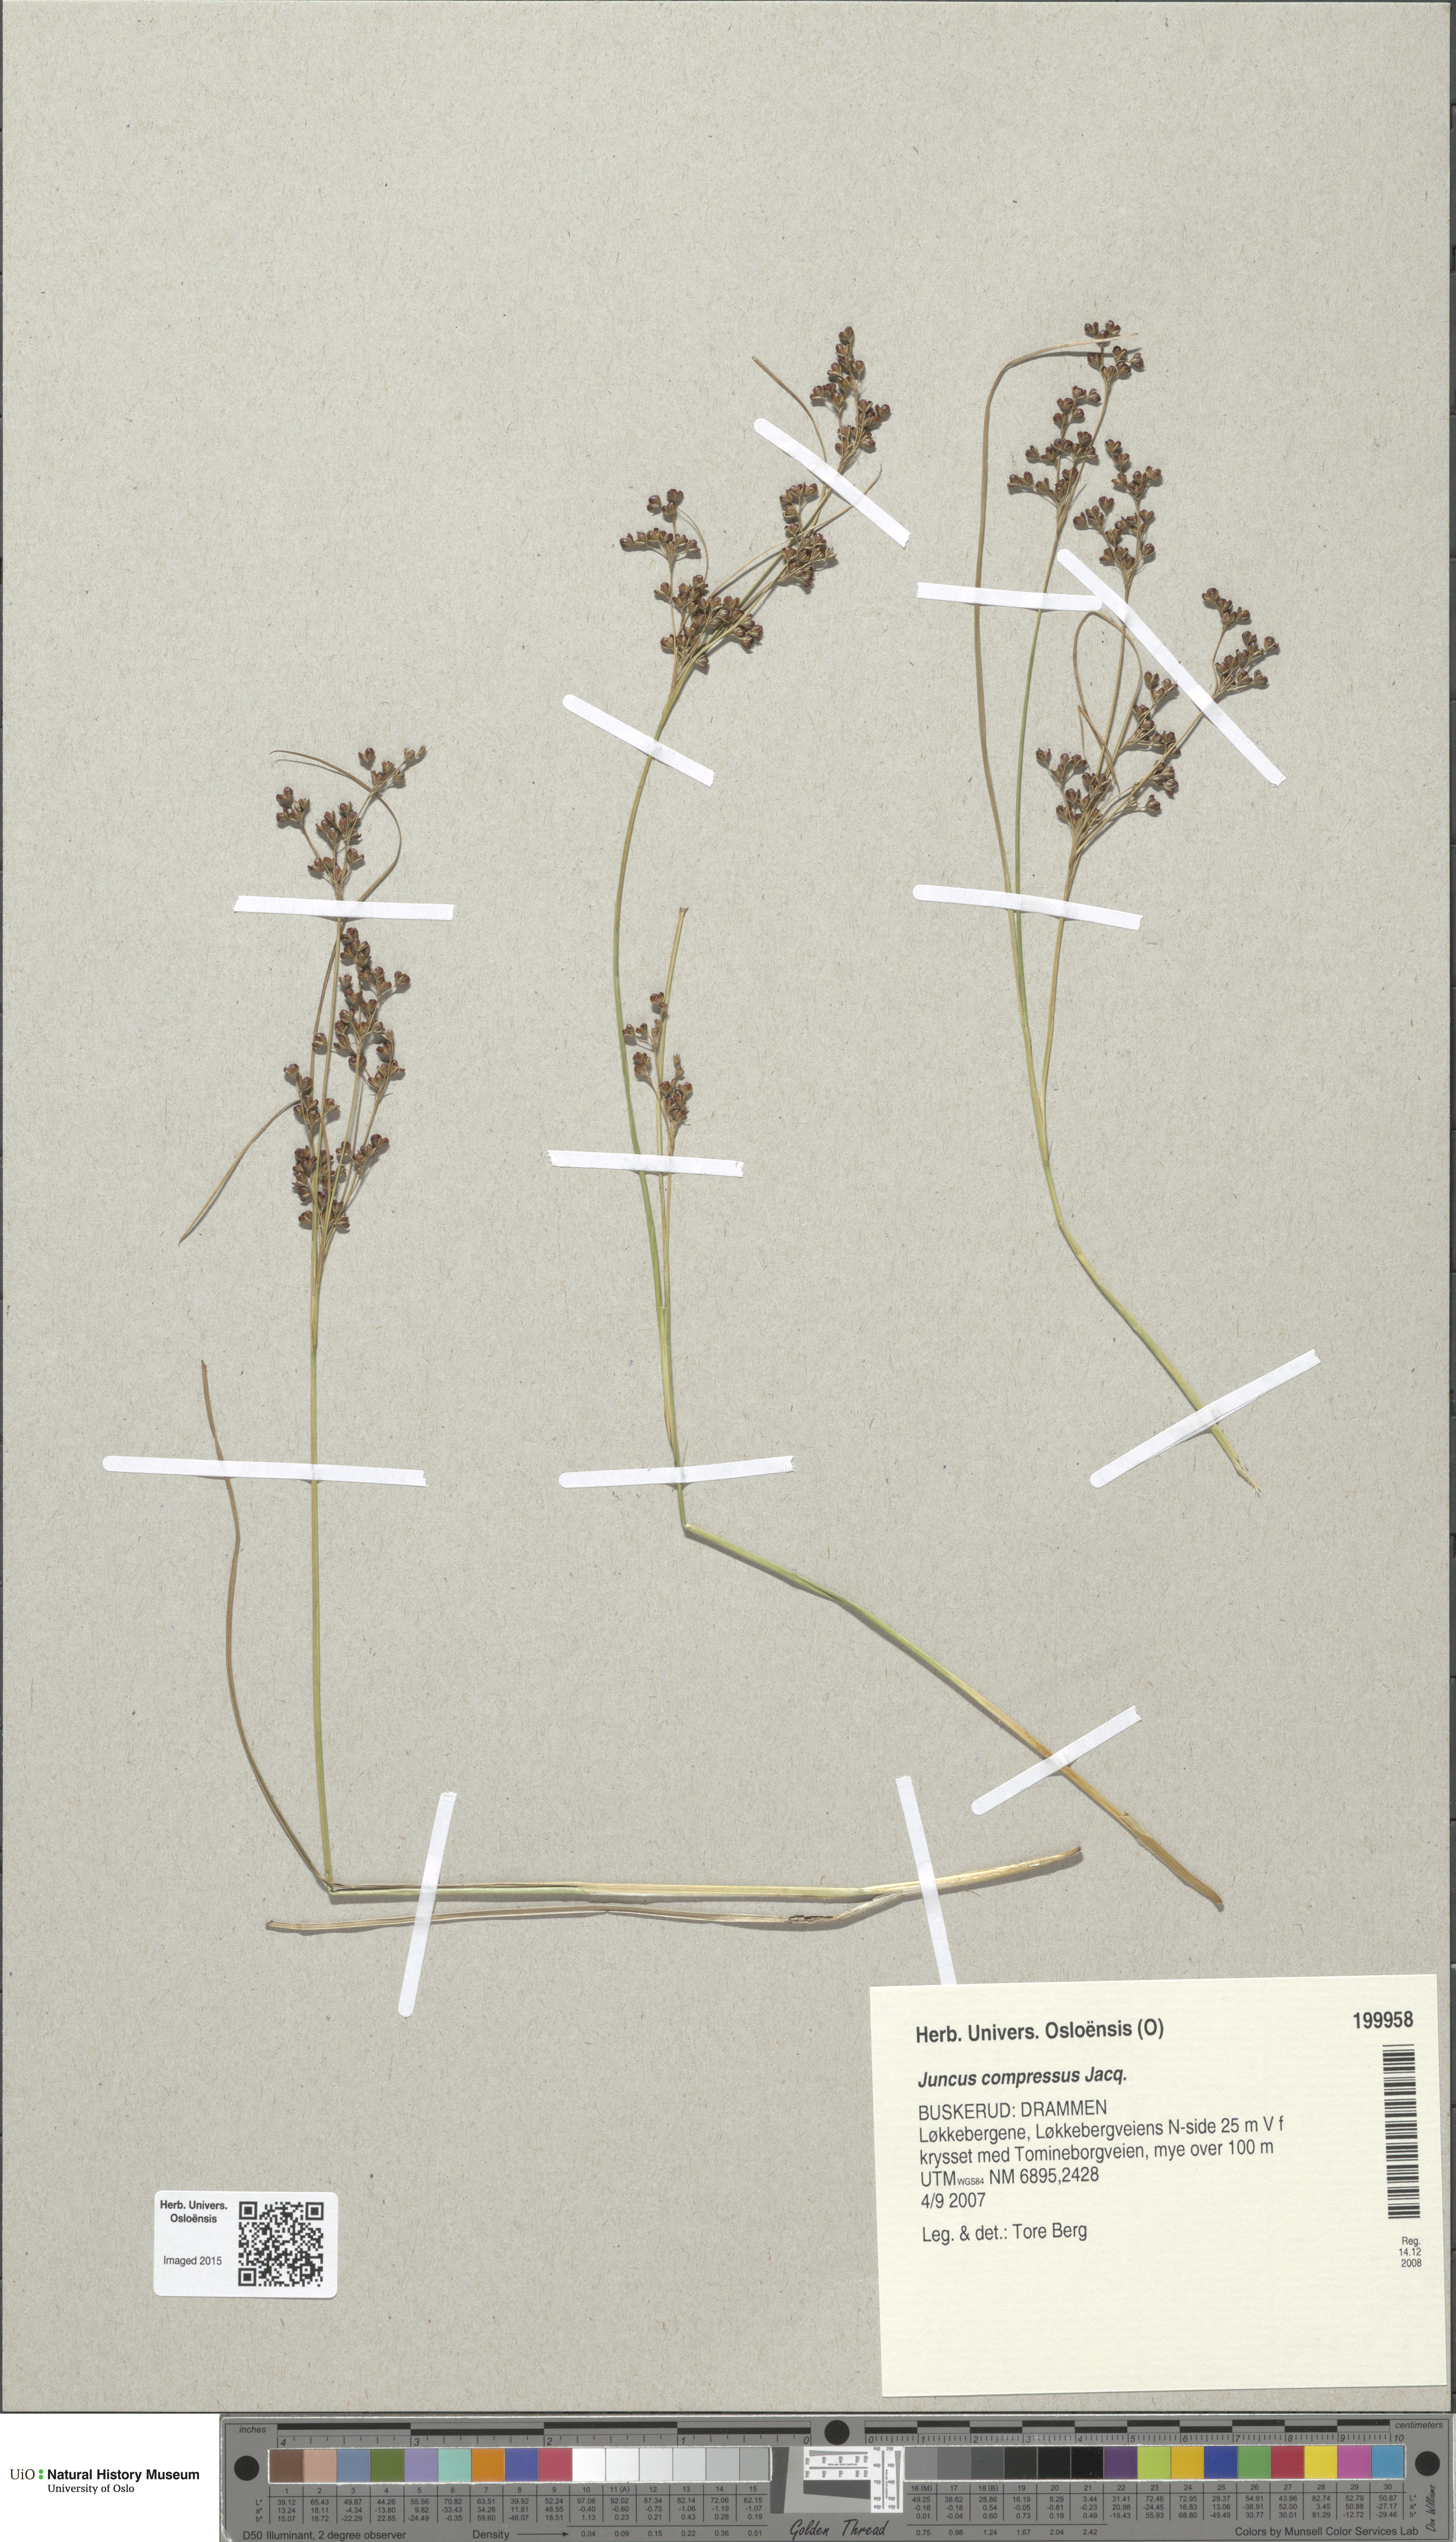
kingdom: Plantae
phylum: Tracheophyta
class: Liliopsida
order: Poales
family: Juncaceae
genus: Juncus
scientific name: Juncus compressus
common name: Round-fruited rush
